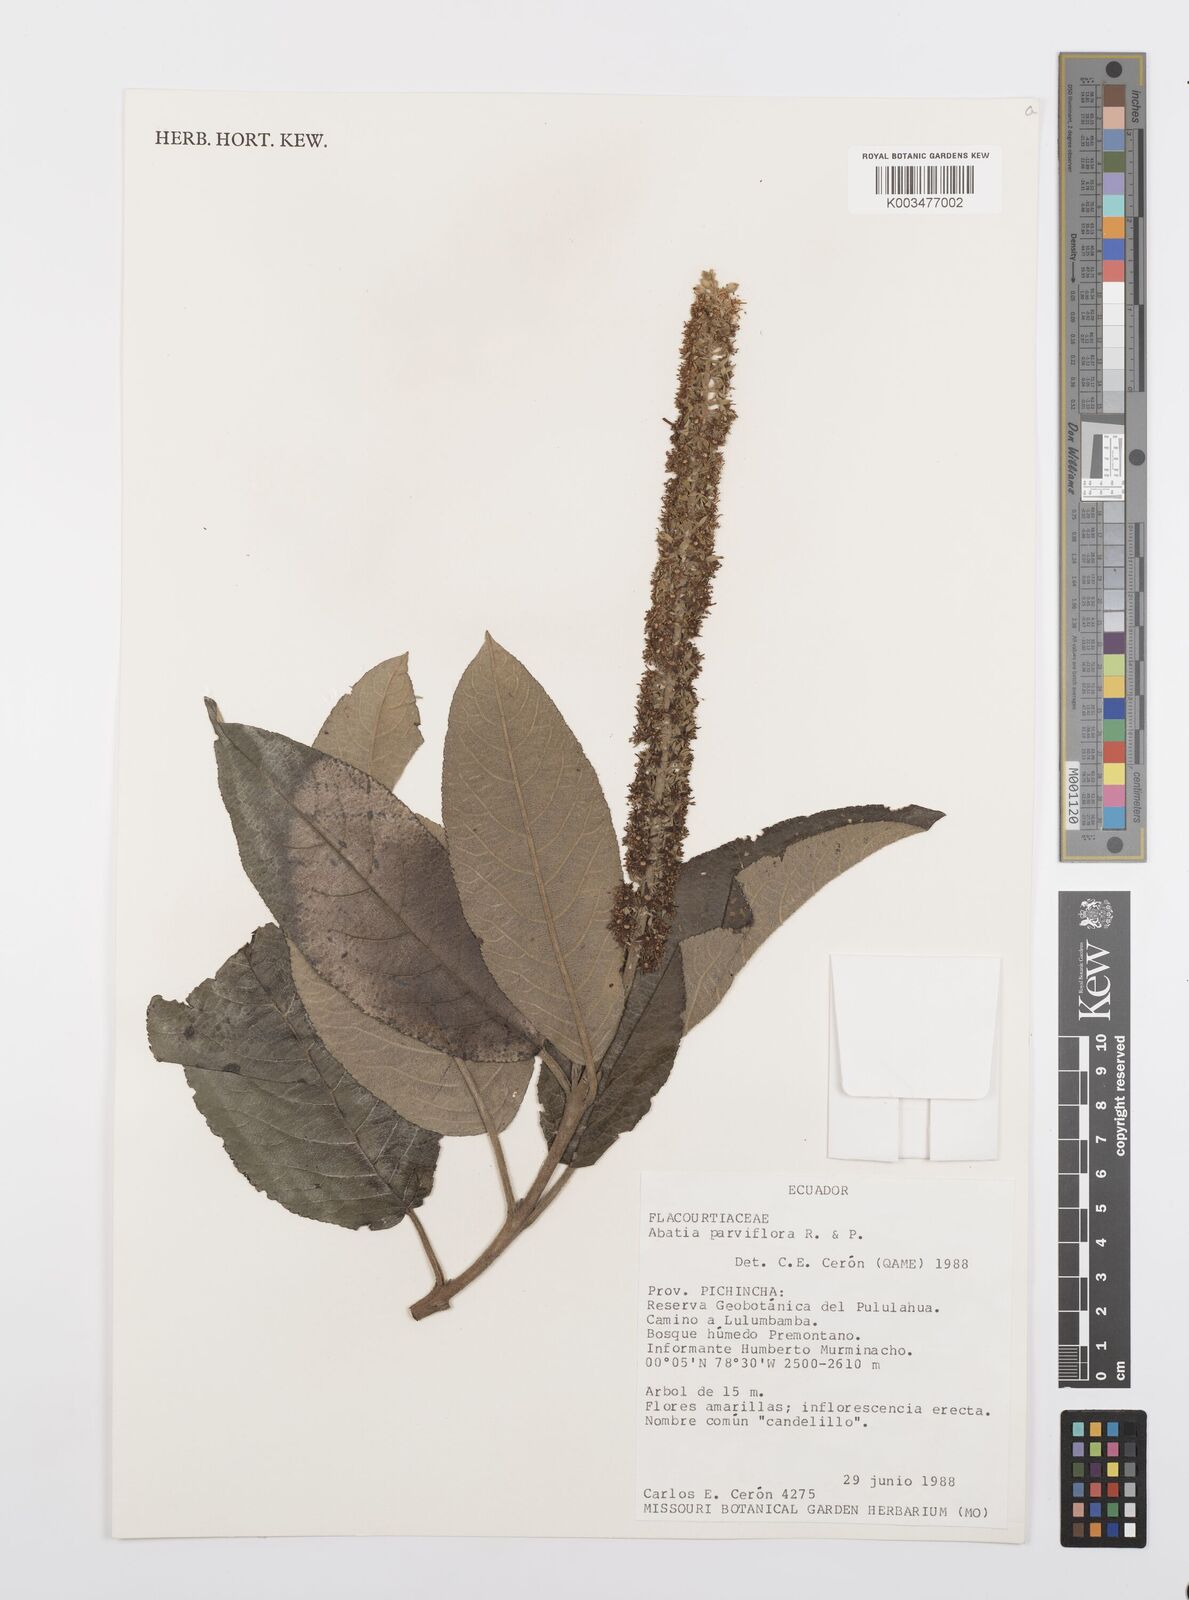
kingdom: Plantae
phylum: Tracheophyta
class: Magnoliopsida
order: Malpighiales
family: Salicaceae
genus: Abatia
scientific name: Abatia parviflora
